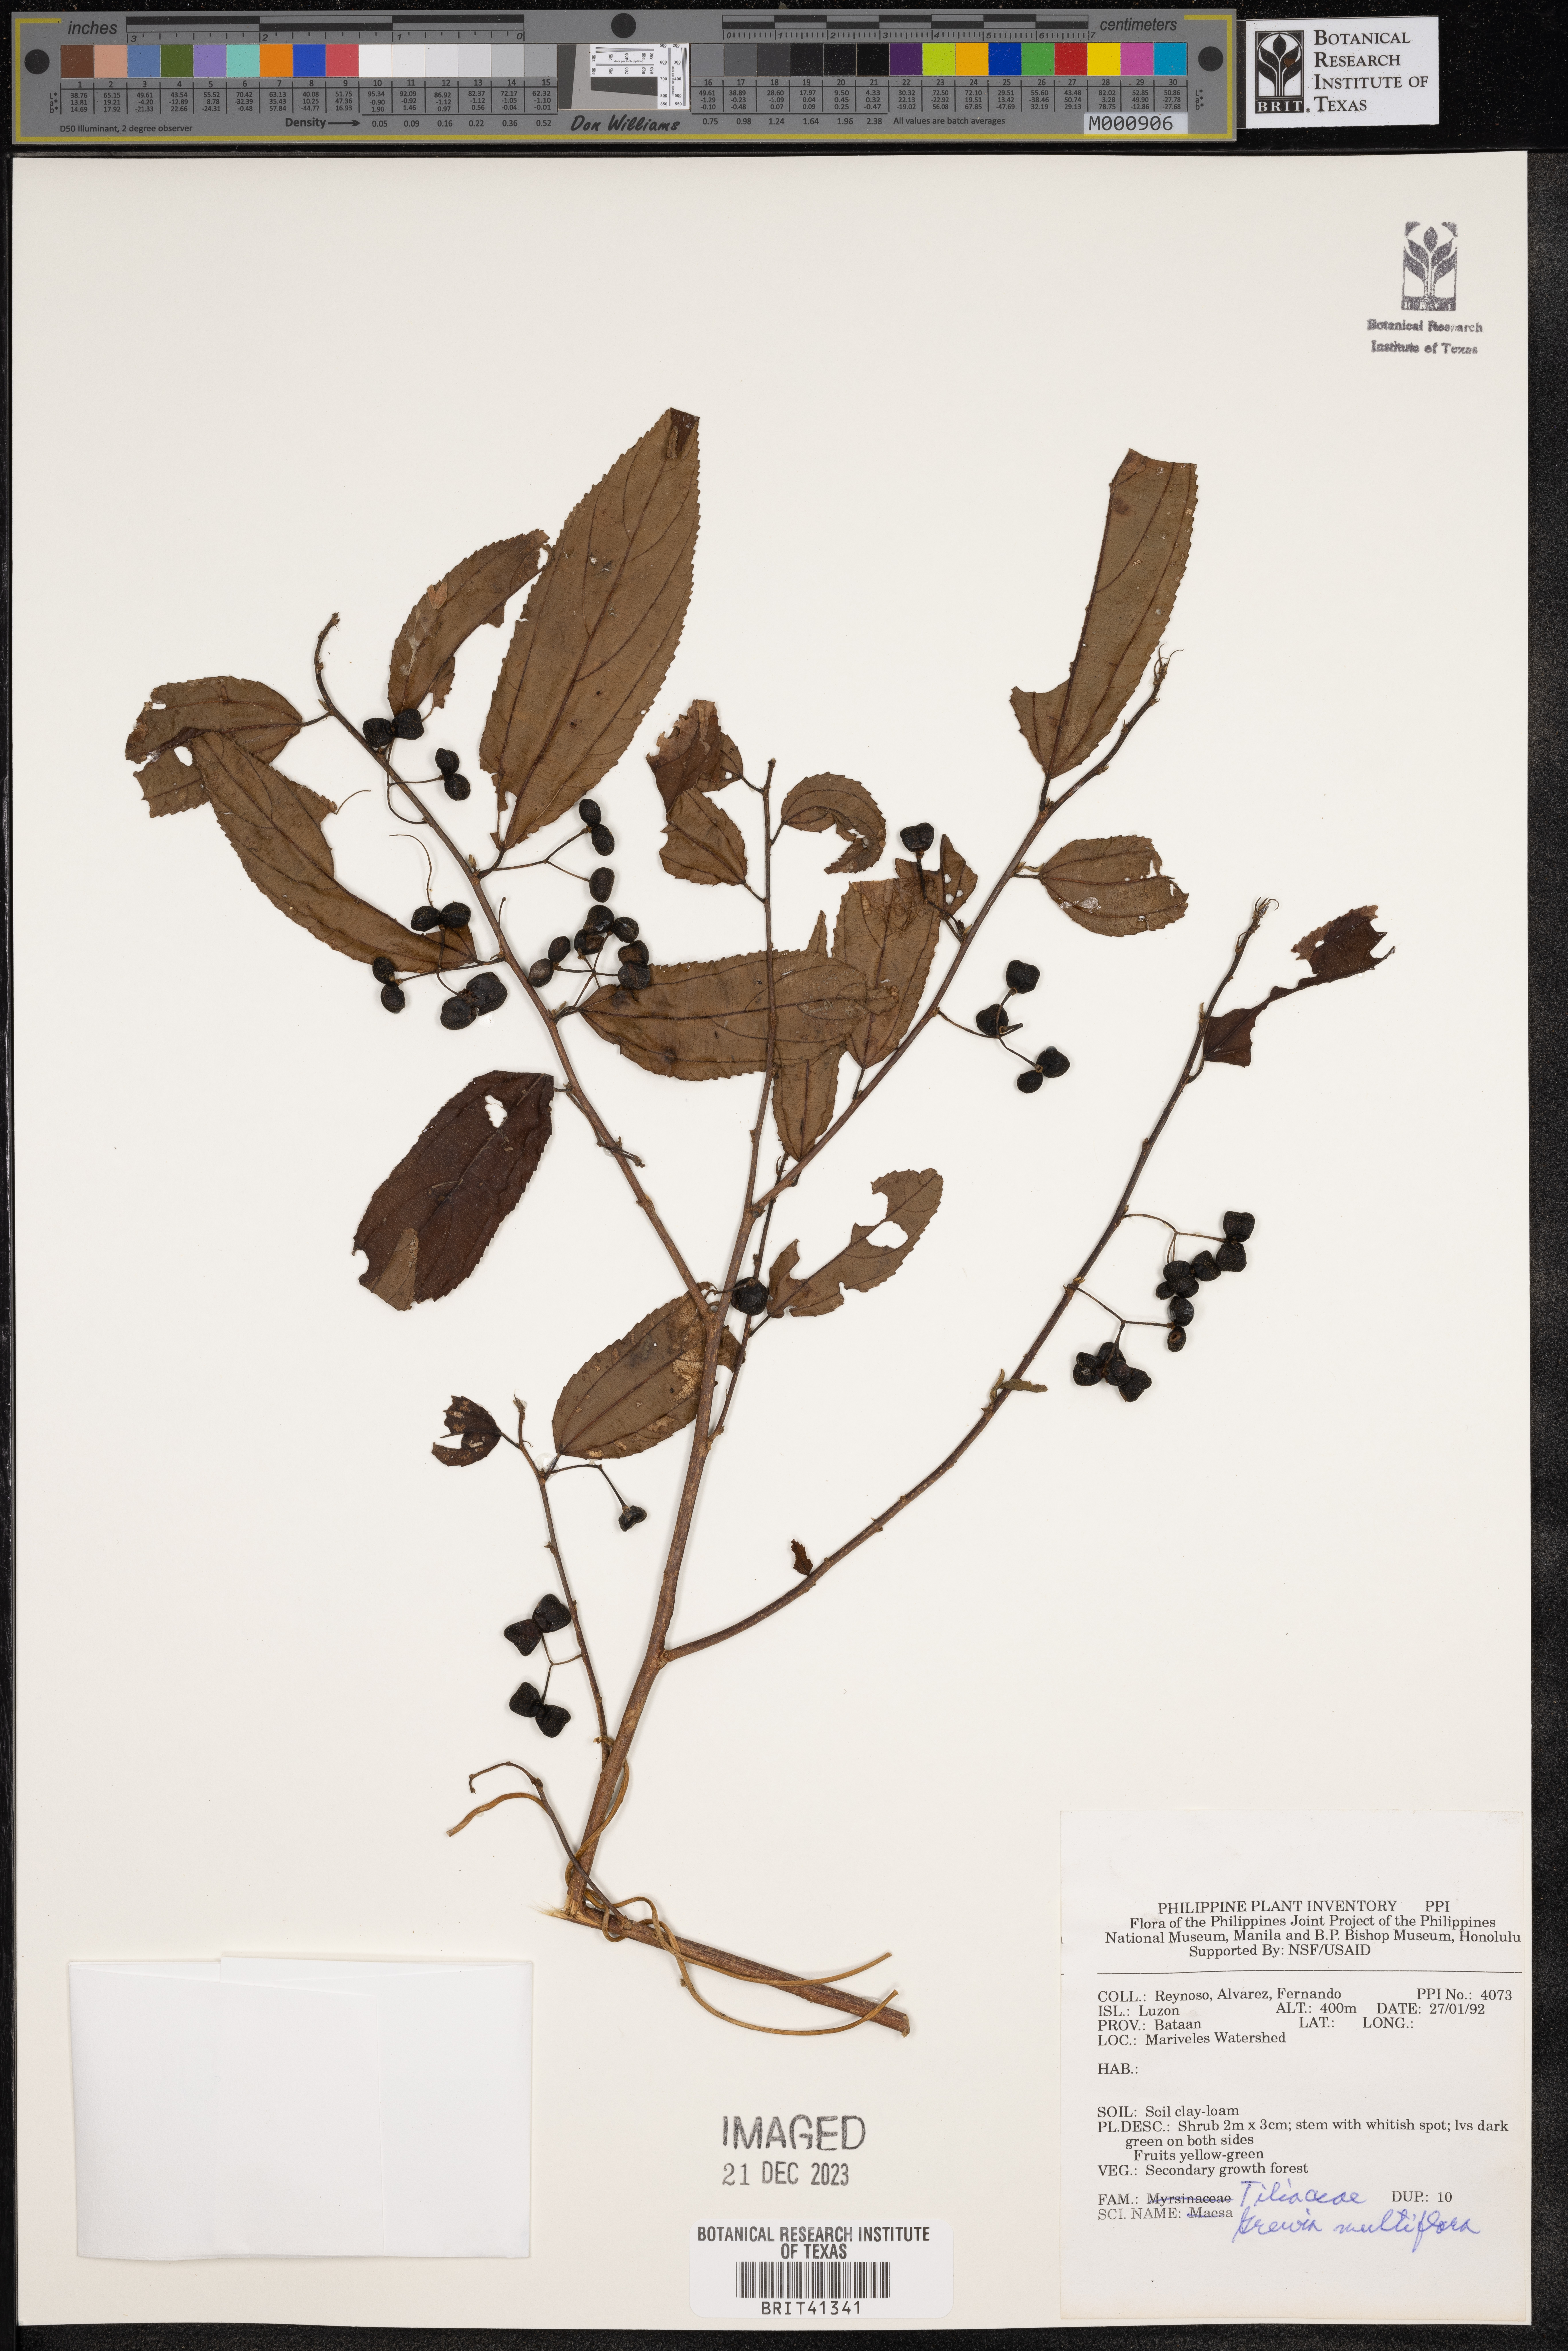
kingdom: Plantae
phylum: Tracheophyta
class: Magnoliopsida
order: Malvales
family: Malvaceae
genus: Grewia
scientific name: Grewia multiflora
